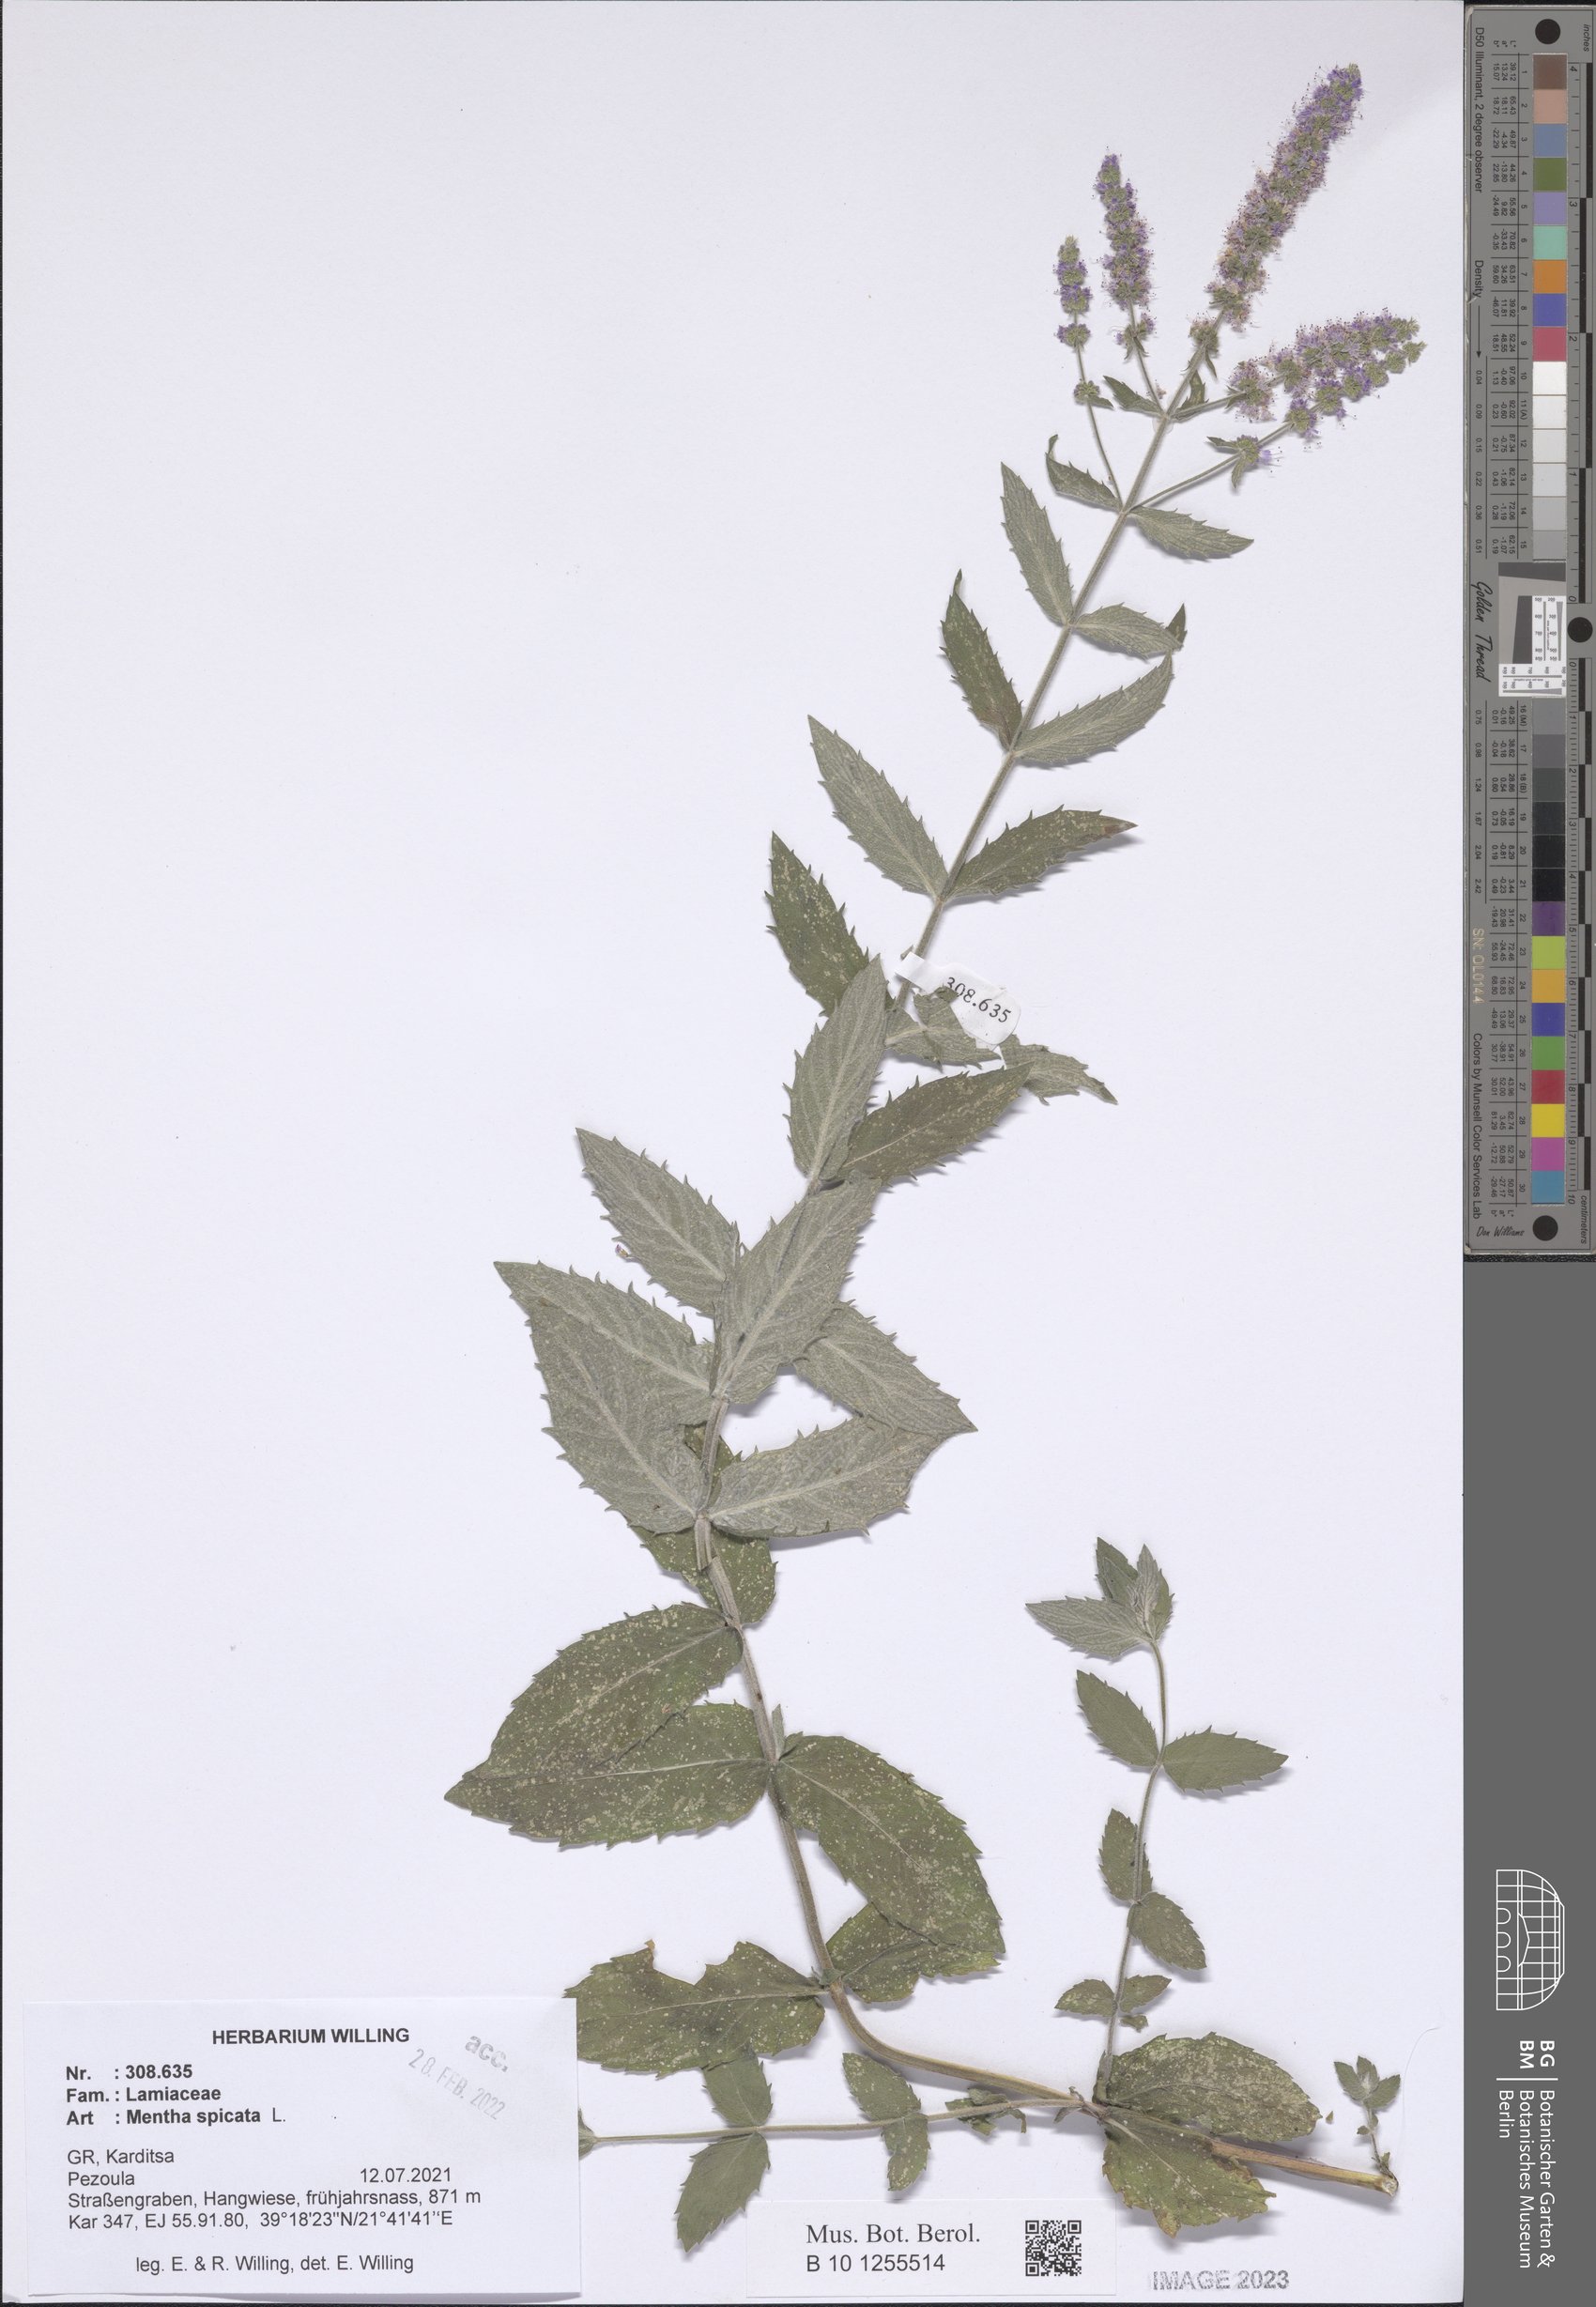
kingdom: Plantae
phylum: Tracheophyta
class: Magnoliopsida
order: Lamiales
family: Lamiaceae
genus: Mentha
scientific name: Mentha spicata
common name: Spearmint
